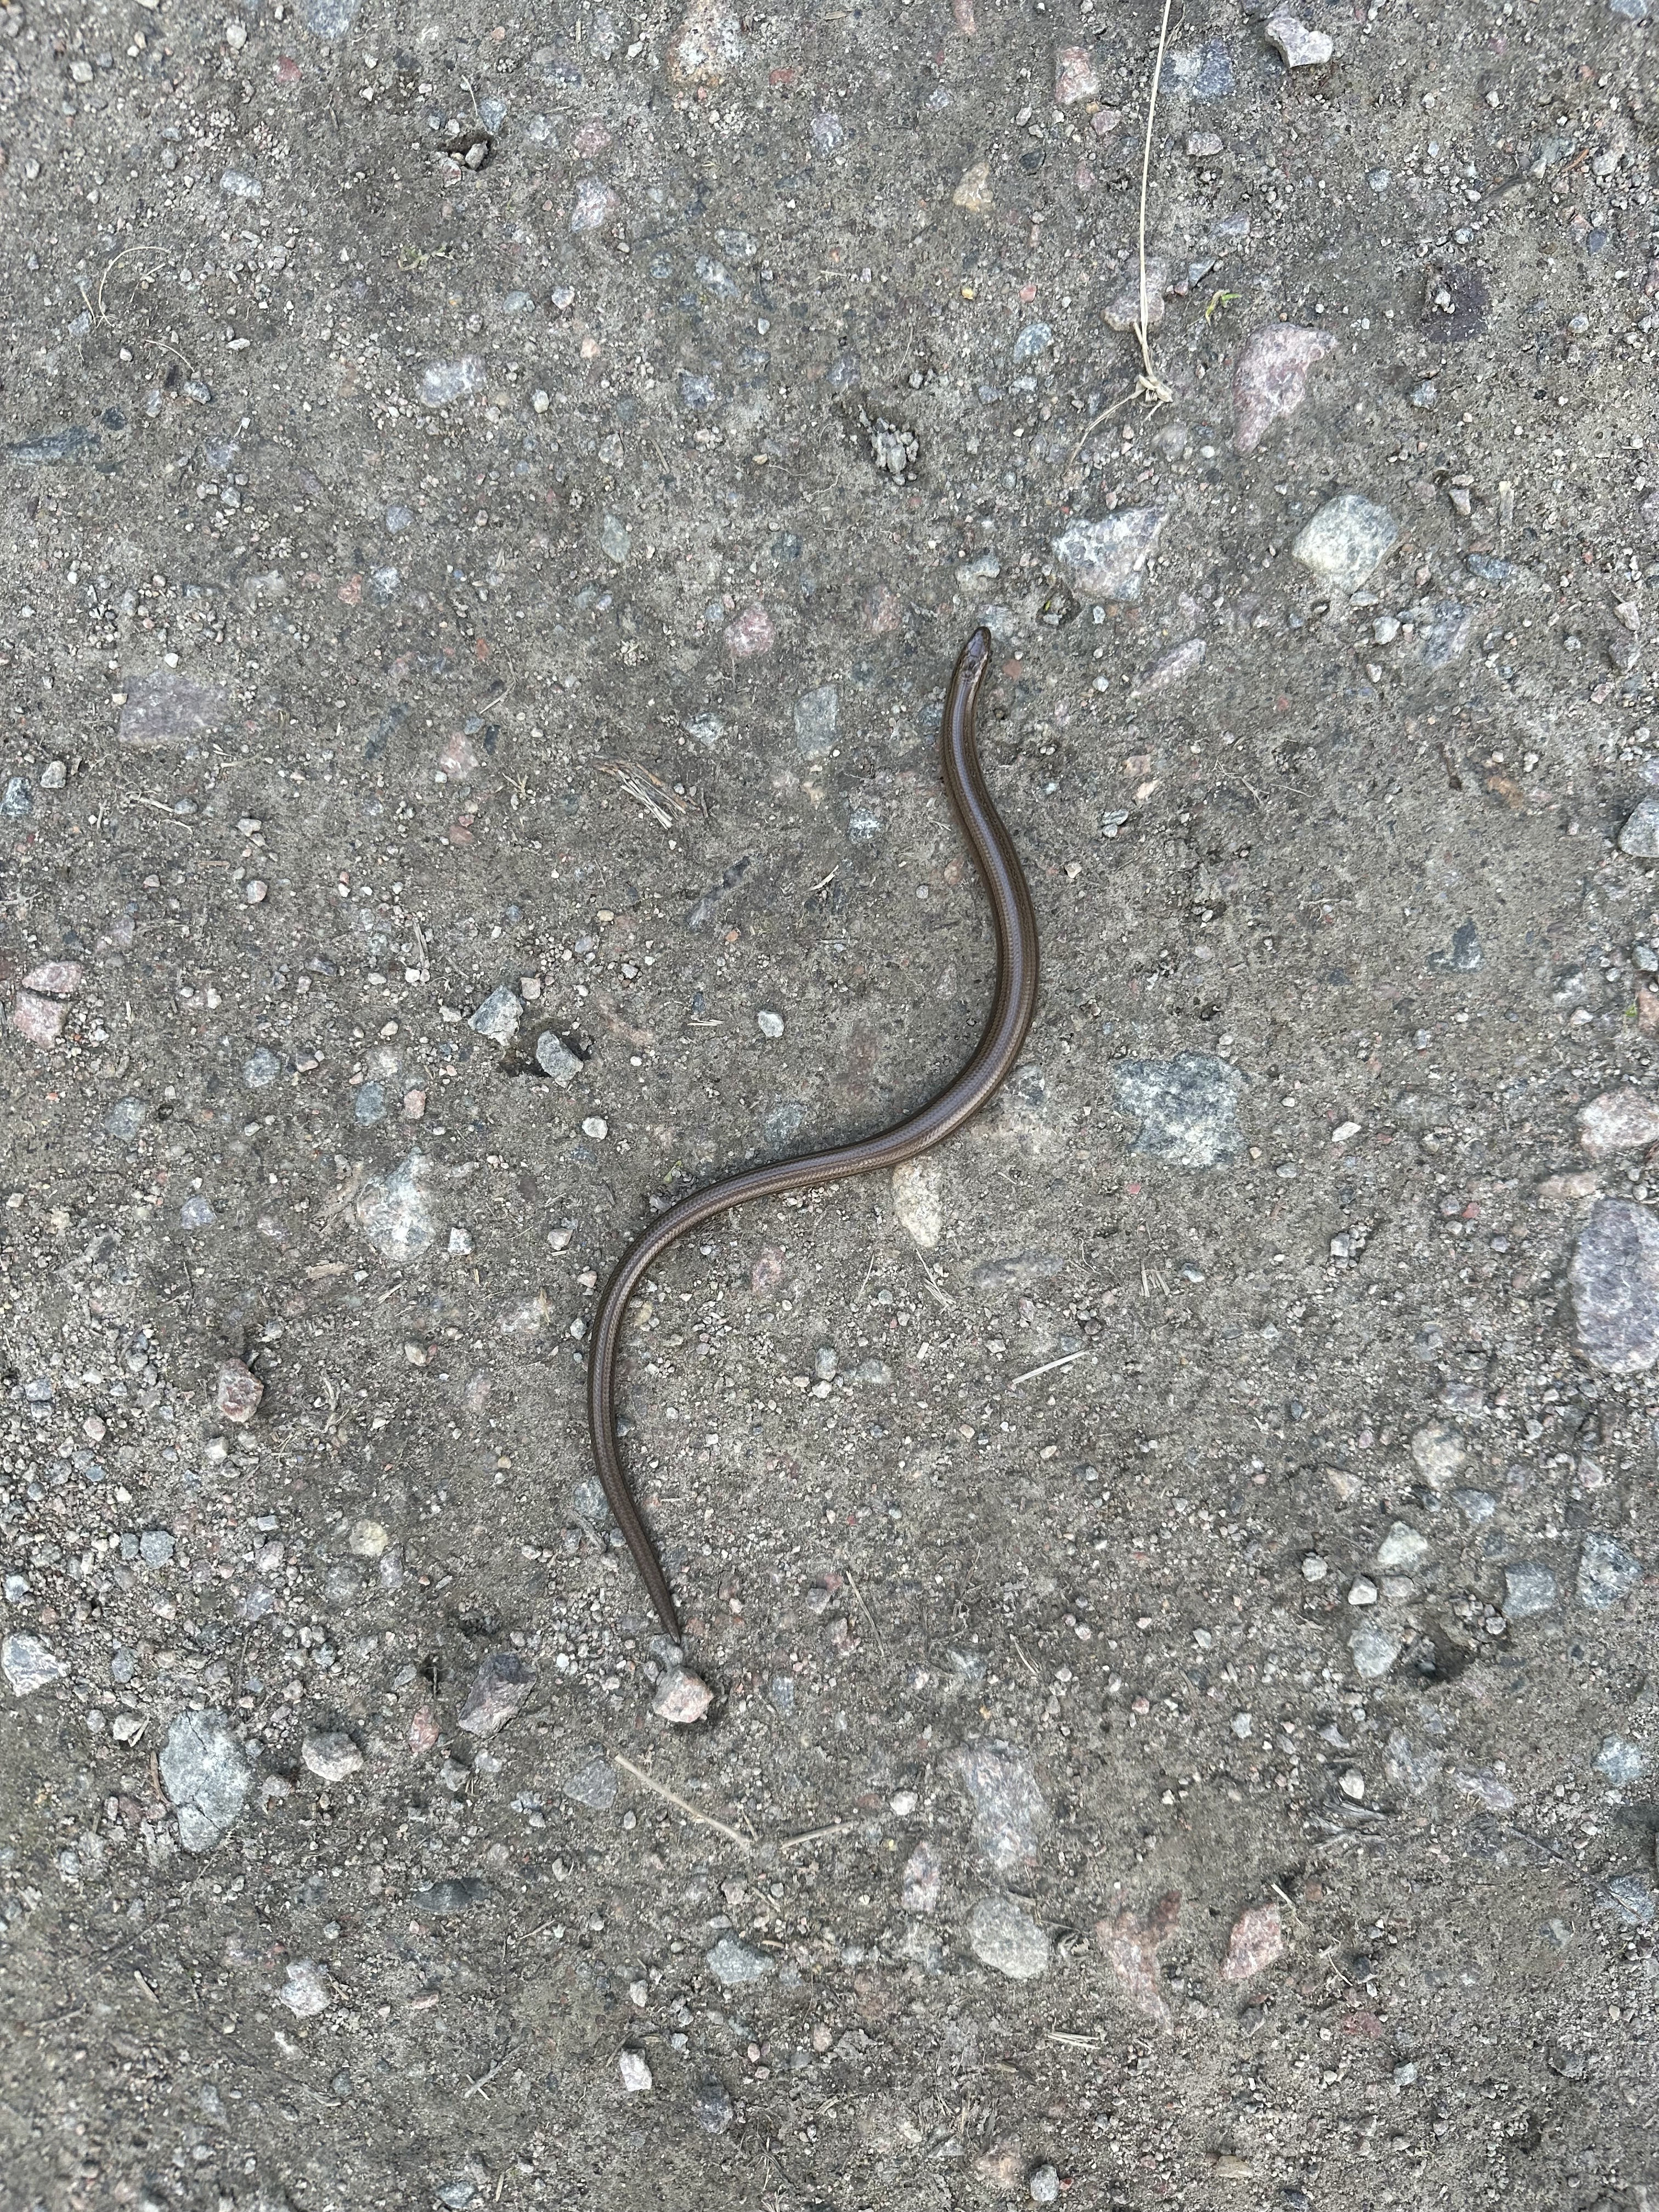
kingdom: Animalia
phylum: Chordata
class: Squamata
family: Anguidae
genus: Anguis
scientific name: Anguis colchica
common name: Slow worm
